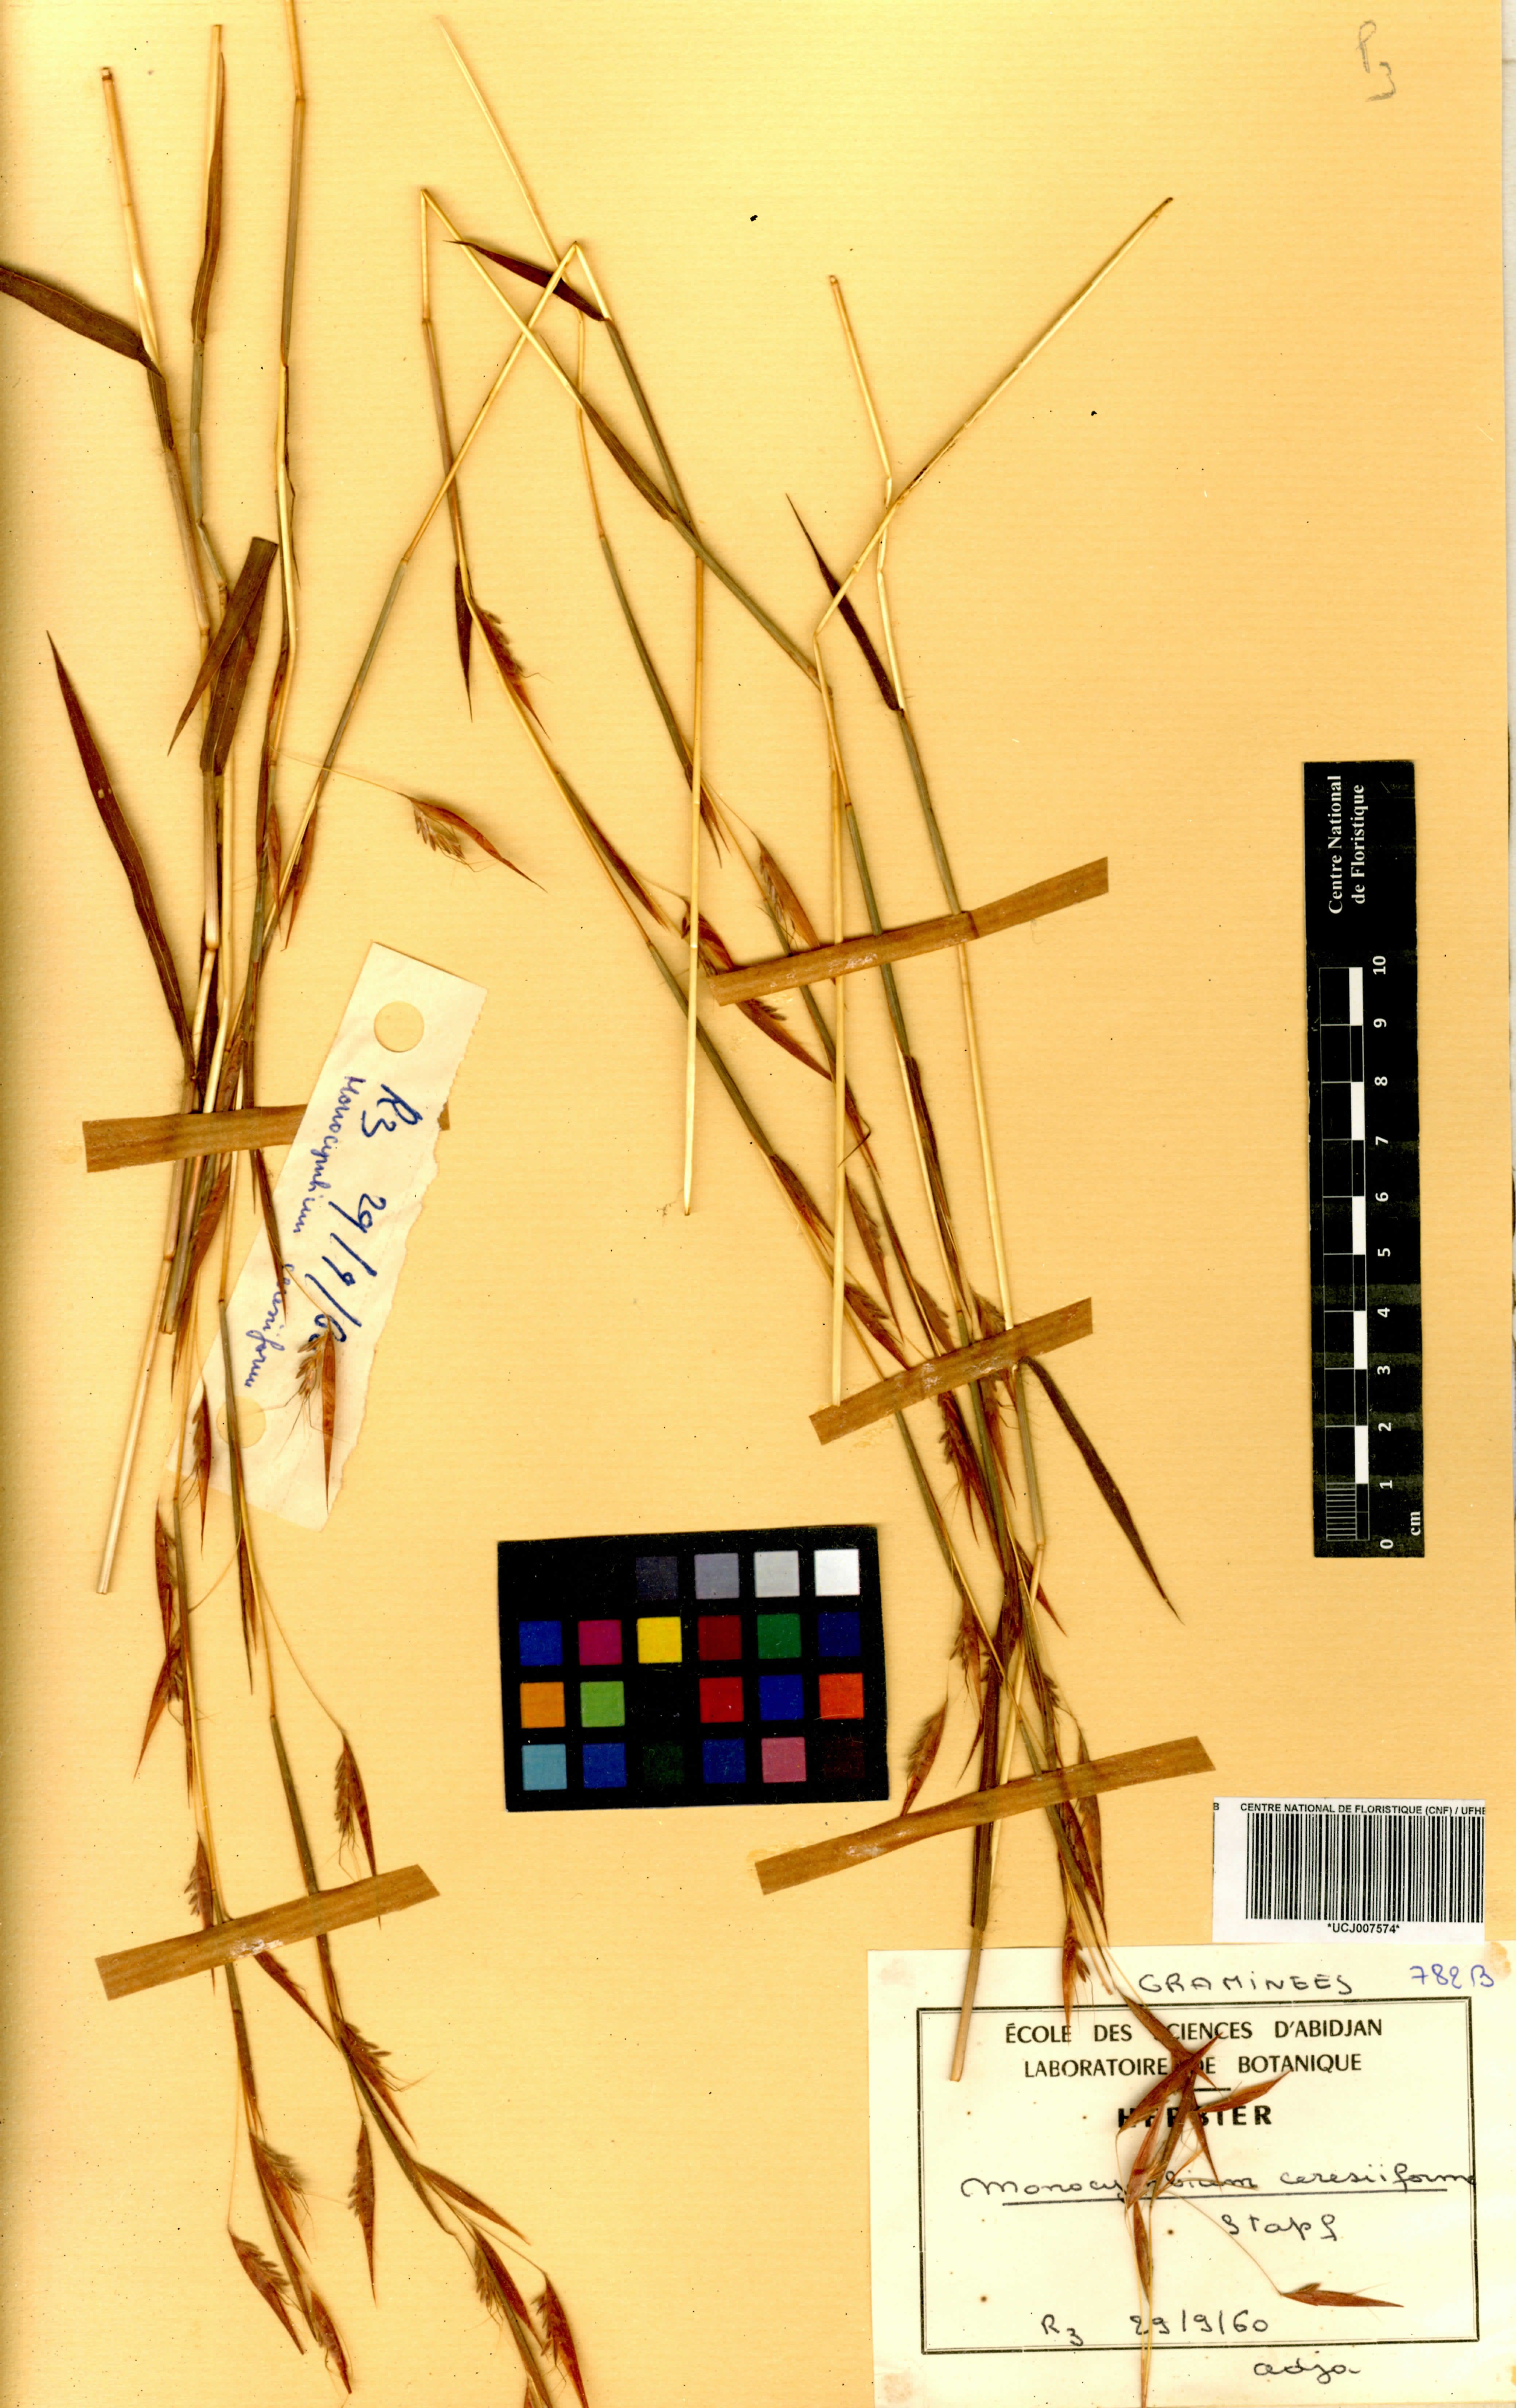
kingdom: Plantae
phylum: Tracheophyta
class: Liliopsida
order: Poales
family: Poaceae
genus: Monocymbium
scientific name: Monocymbium ceresiiforme
